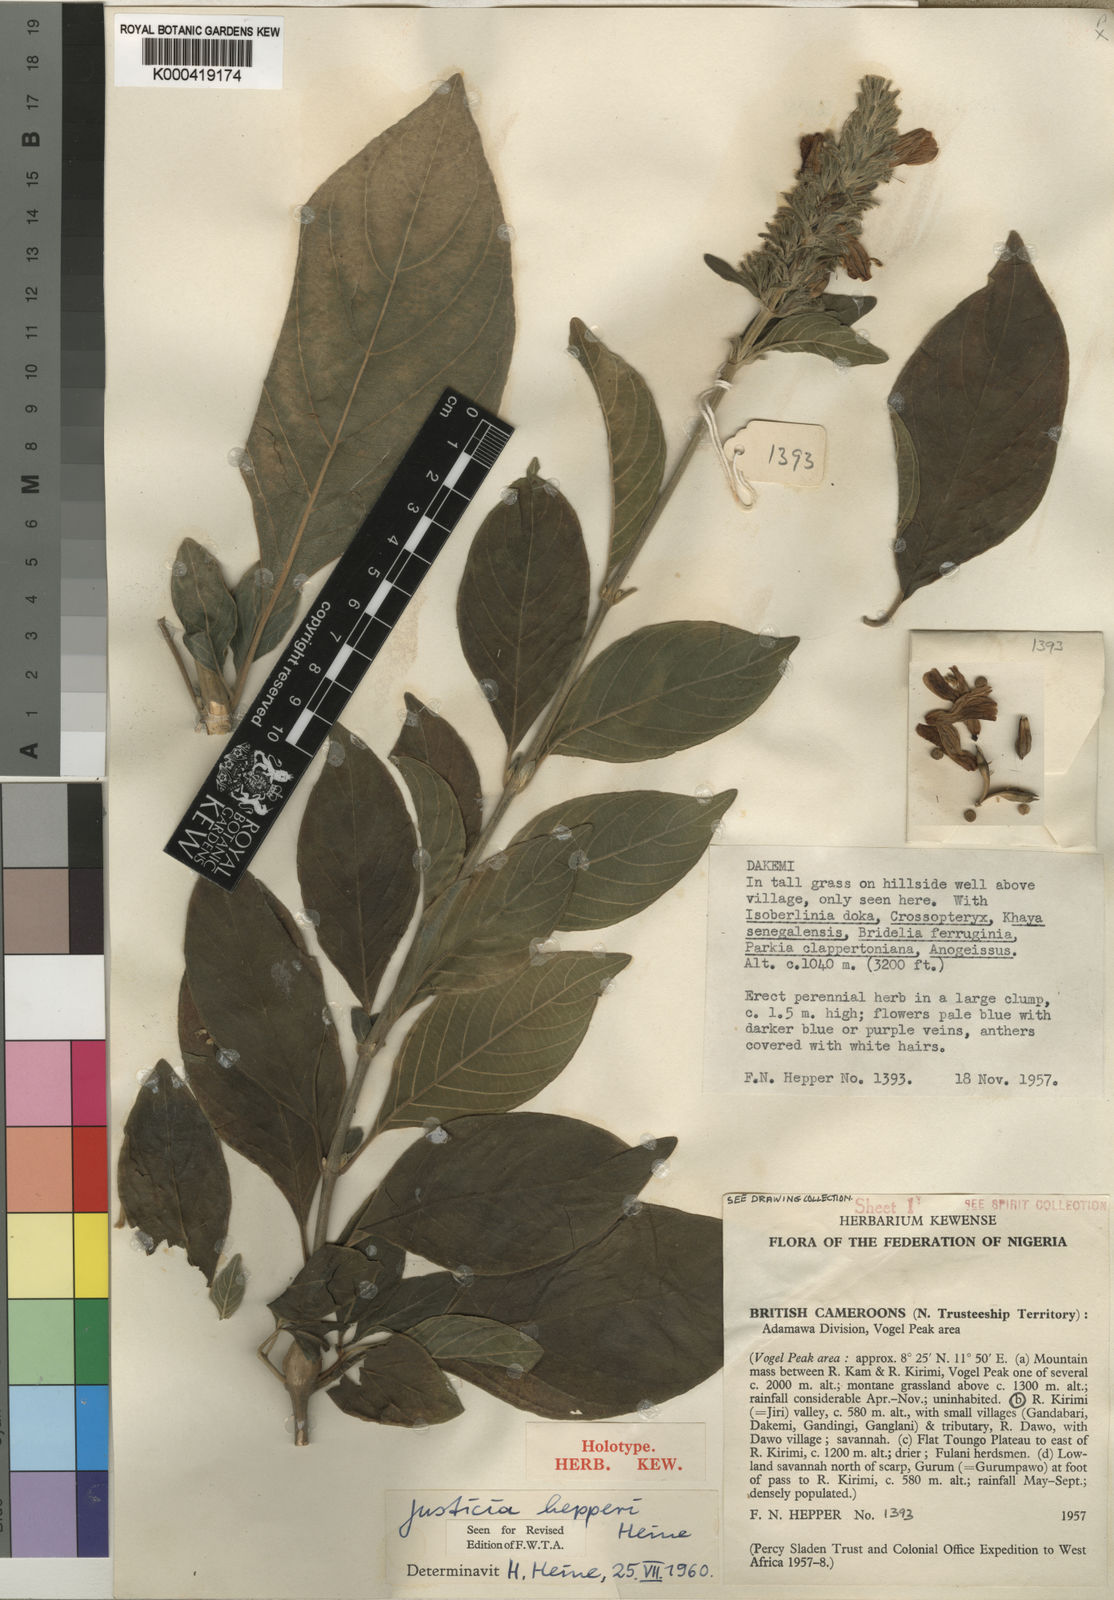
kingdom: Plantae
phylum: Tracheophyta
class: Magnoliopsida
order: Lamiales
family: Acanthaceae
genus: Justicia
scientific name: Justicia hepperi
